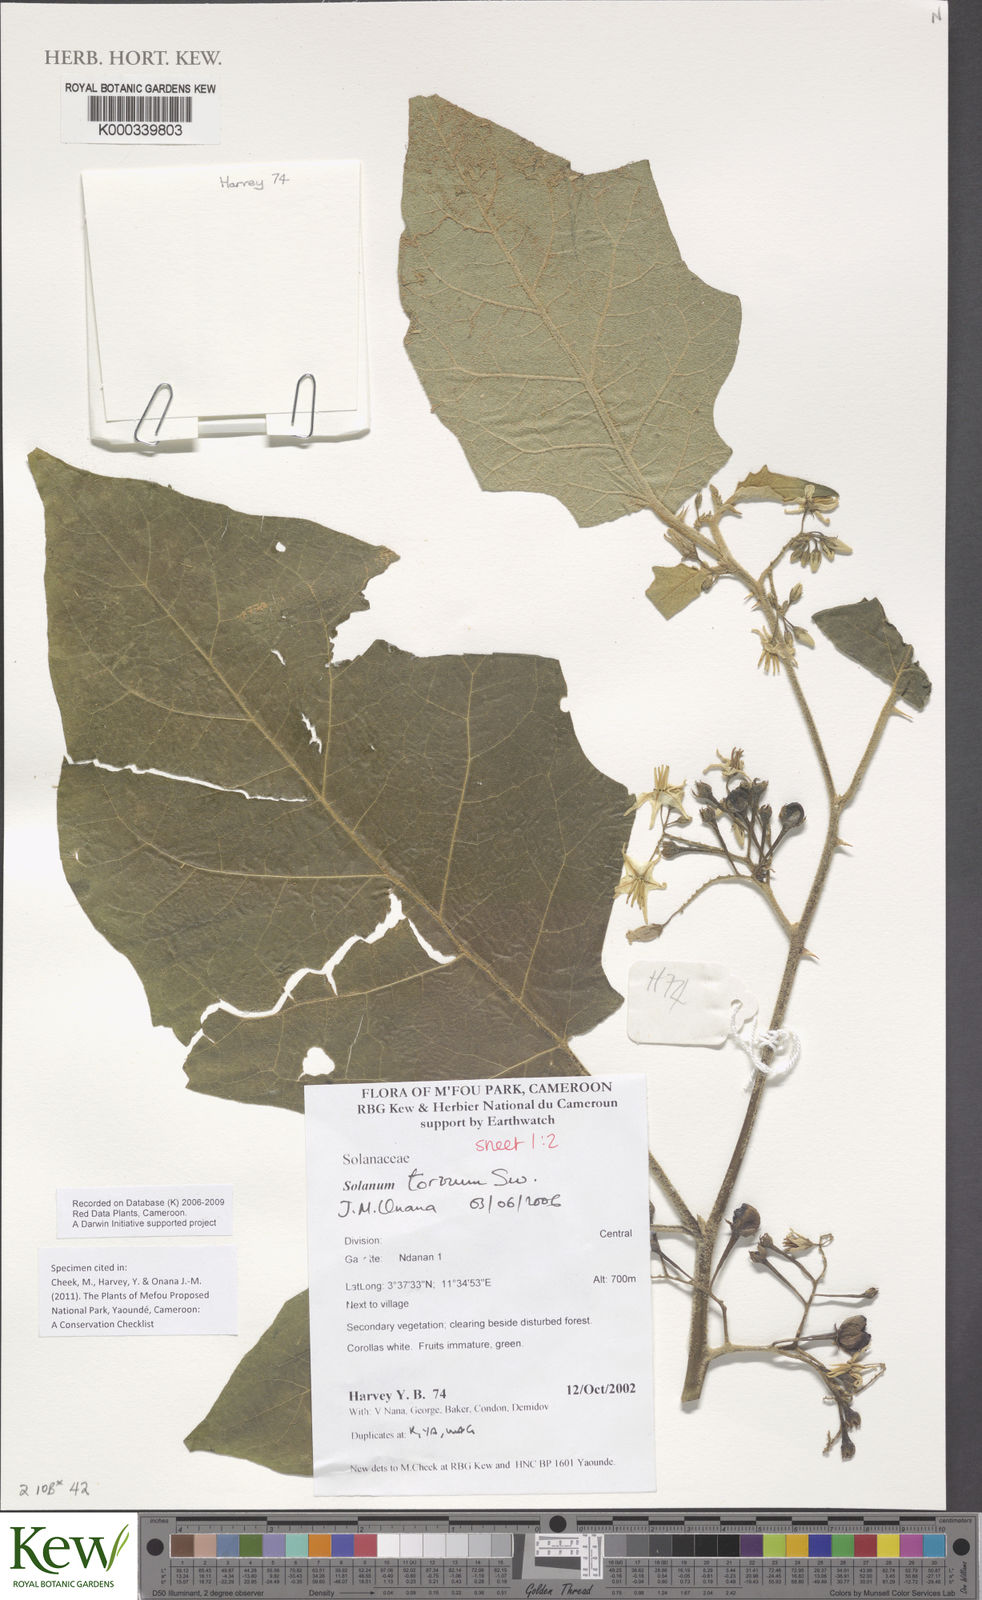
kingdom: Plantae
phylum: Tracheophyta
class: Magnoliopsida
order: Solanales
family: Solanaceae
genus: Solanum
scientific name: Solanum torvum
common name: Turkey berry
